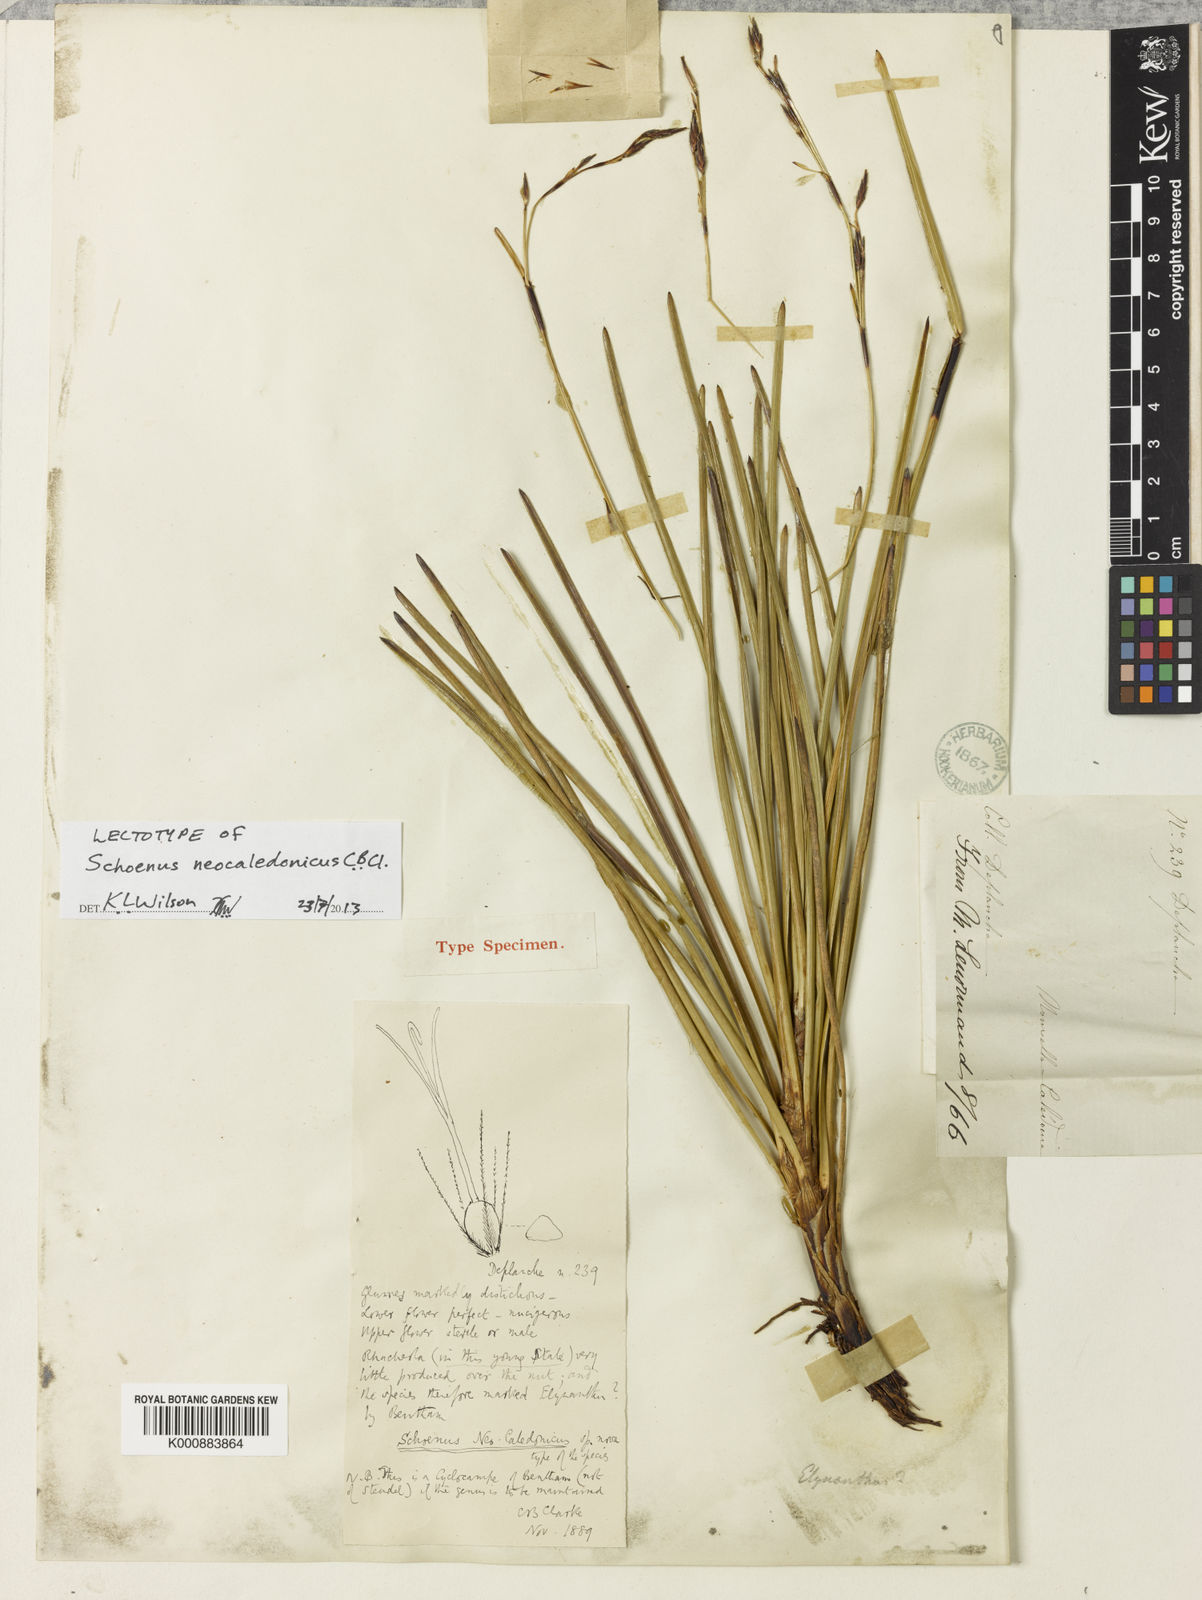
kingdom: Plantae
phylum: Tracheophyta
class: Liliopsida
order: Poales
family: Cyperaceae
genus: Schoenus
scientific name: Schoenus neocaledonicus
